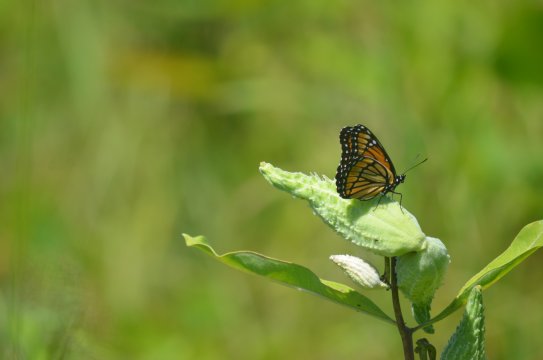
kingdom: Animalia
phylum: Arthropoda
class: Insecta
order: Lepidoptera
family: Nymphalidae
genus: Limenitis
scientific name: Limenitis archippus
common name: Viceroy
